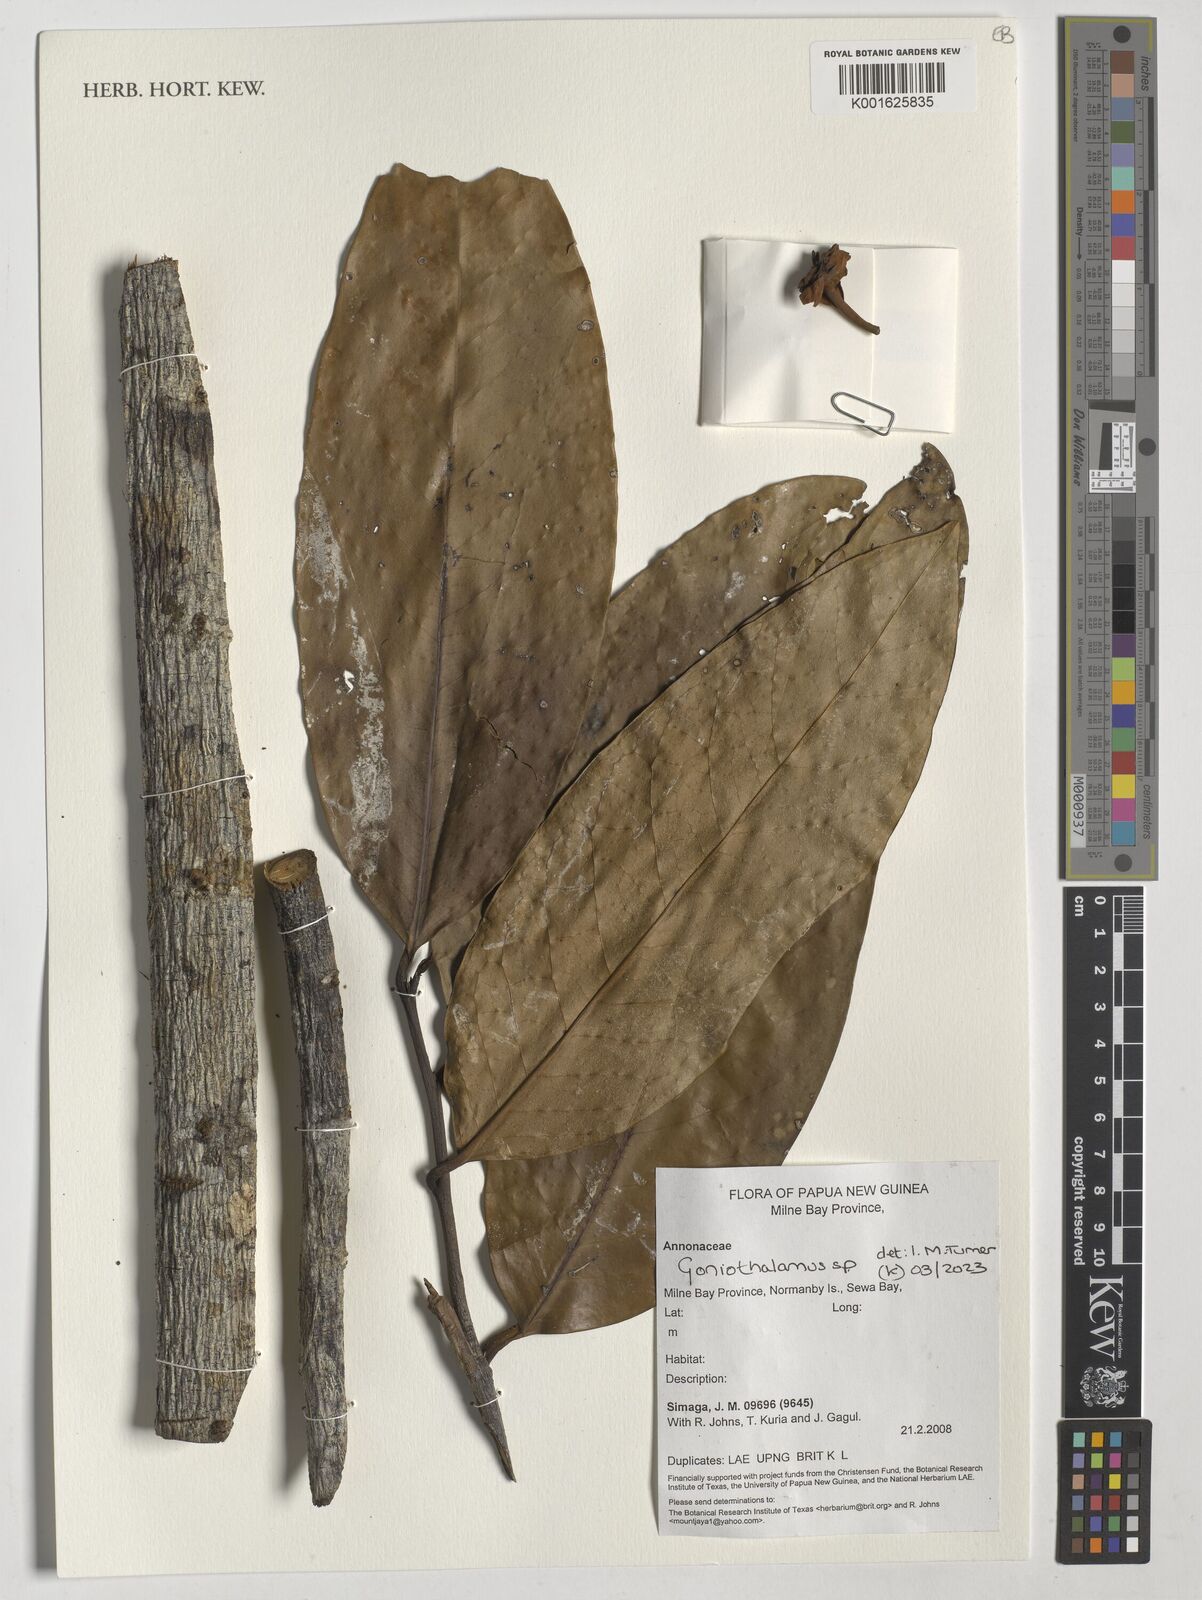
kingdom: Plantae
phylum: Tracheophyta
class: Magnoliopsida
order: Magnoliales
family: Annonaceae
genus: Goniothalamus
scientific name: Goniothalamus
